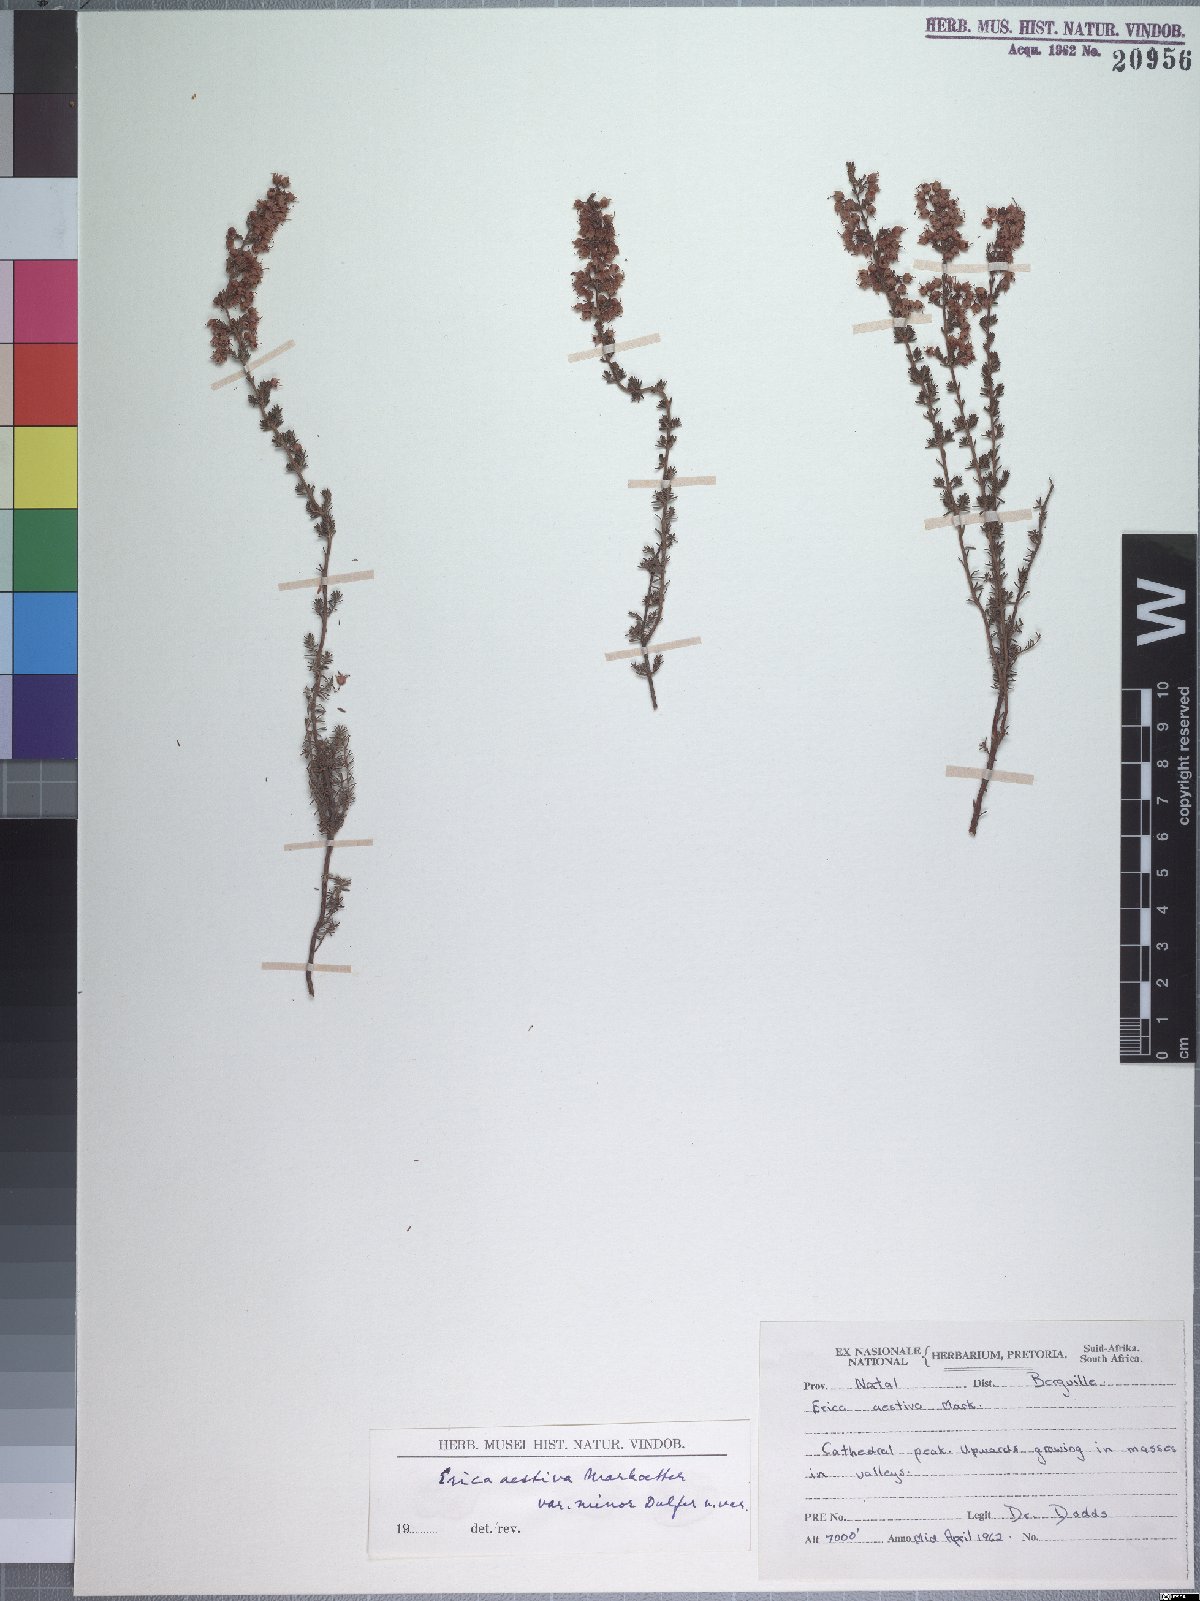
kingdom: Plantae
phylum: Tracheophyta
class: Magnoliopsida
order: Ericales
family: Ericaceae
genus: Erica
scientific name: Erica aestiva
